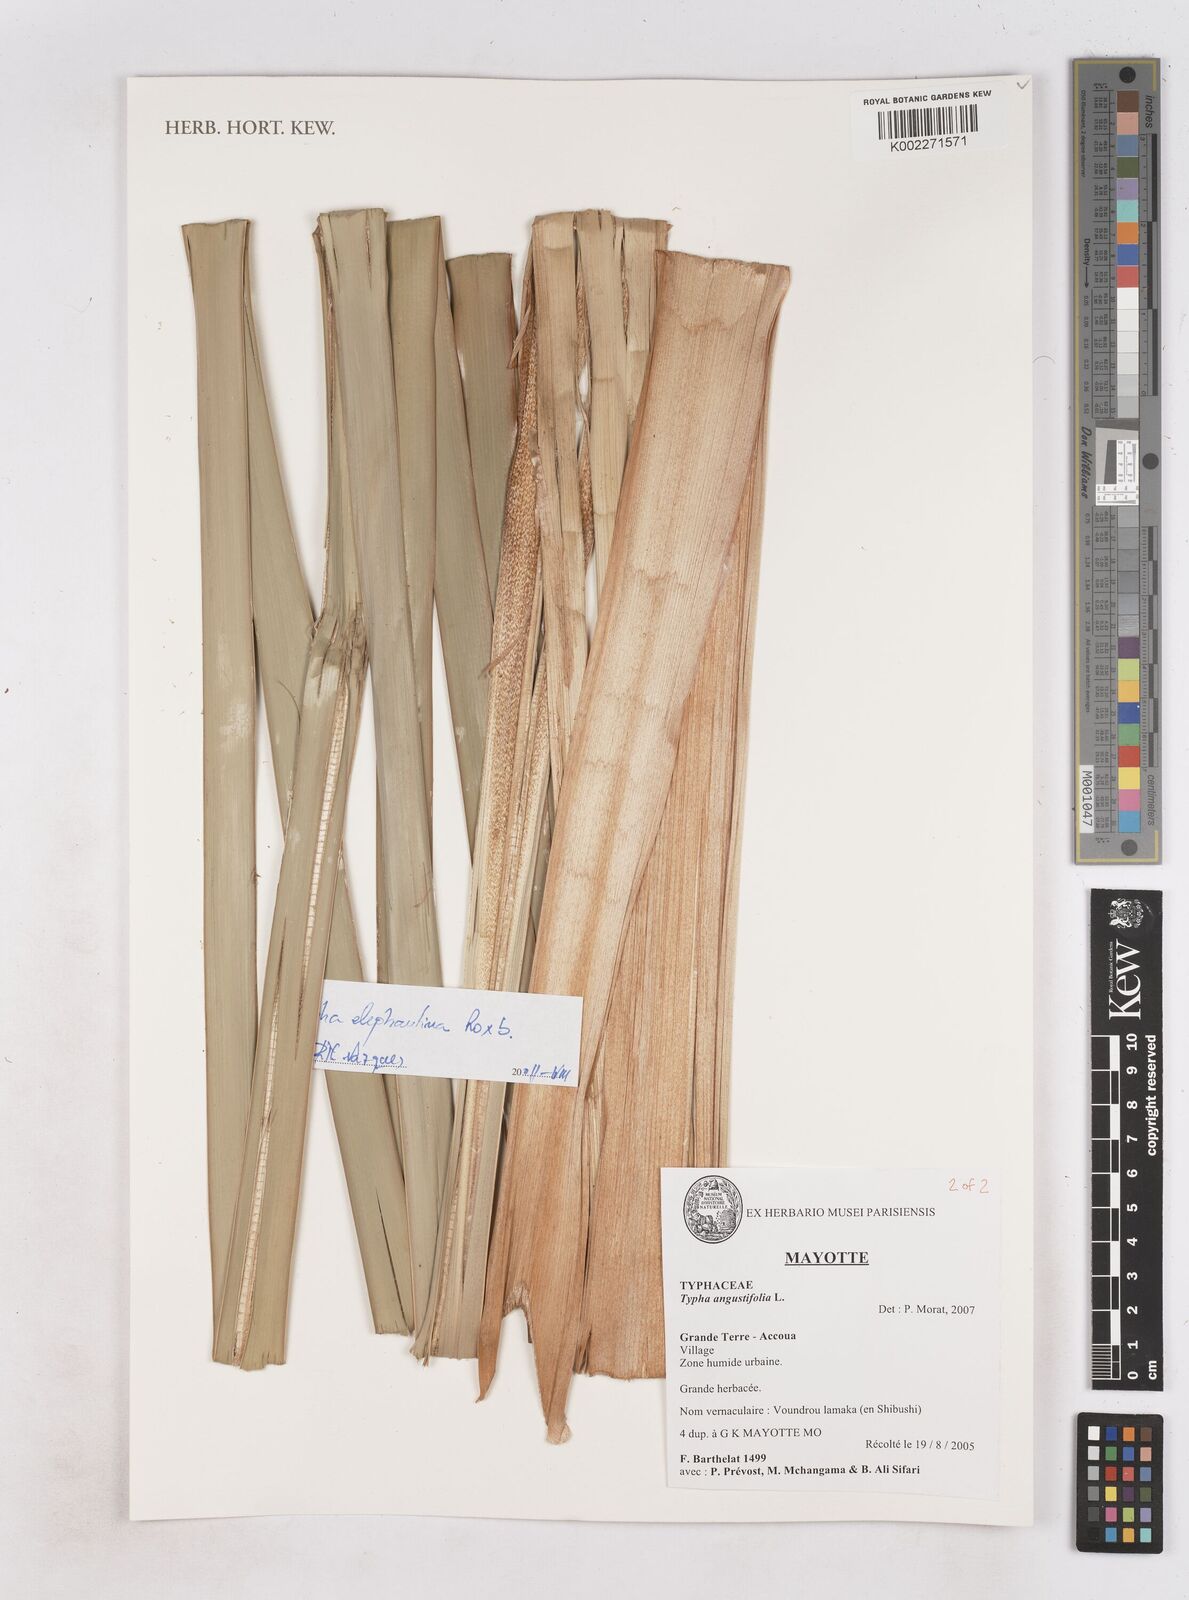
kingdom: Plantae
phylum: Tracheophyta
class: Liliopsida
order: Poales
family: Typhaceae
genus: Typha
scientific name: Typha angustifolia
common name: Lesser bulrush
